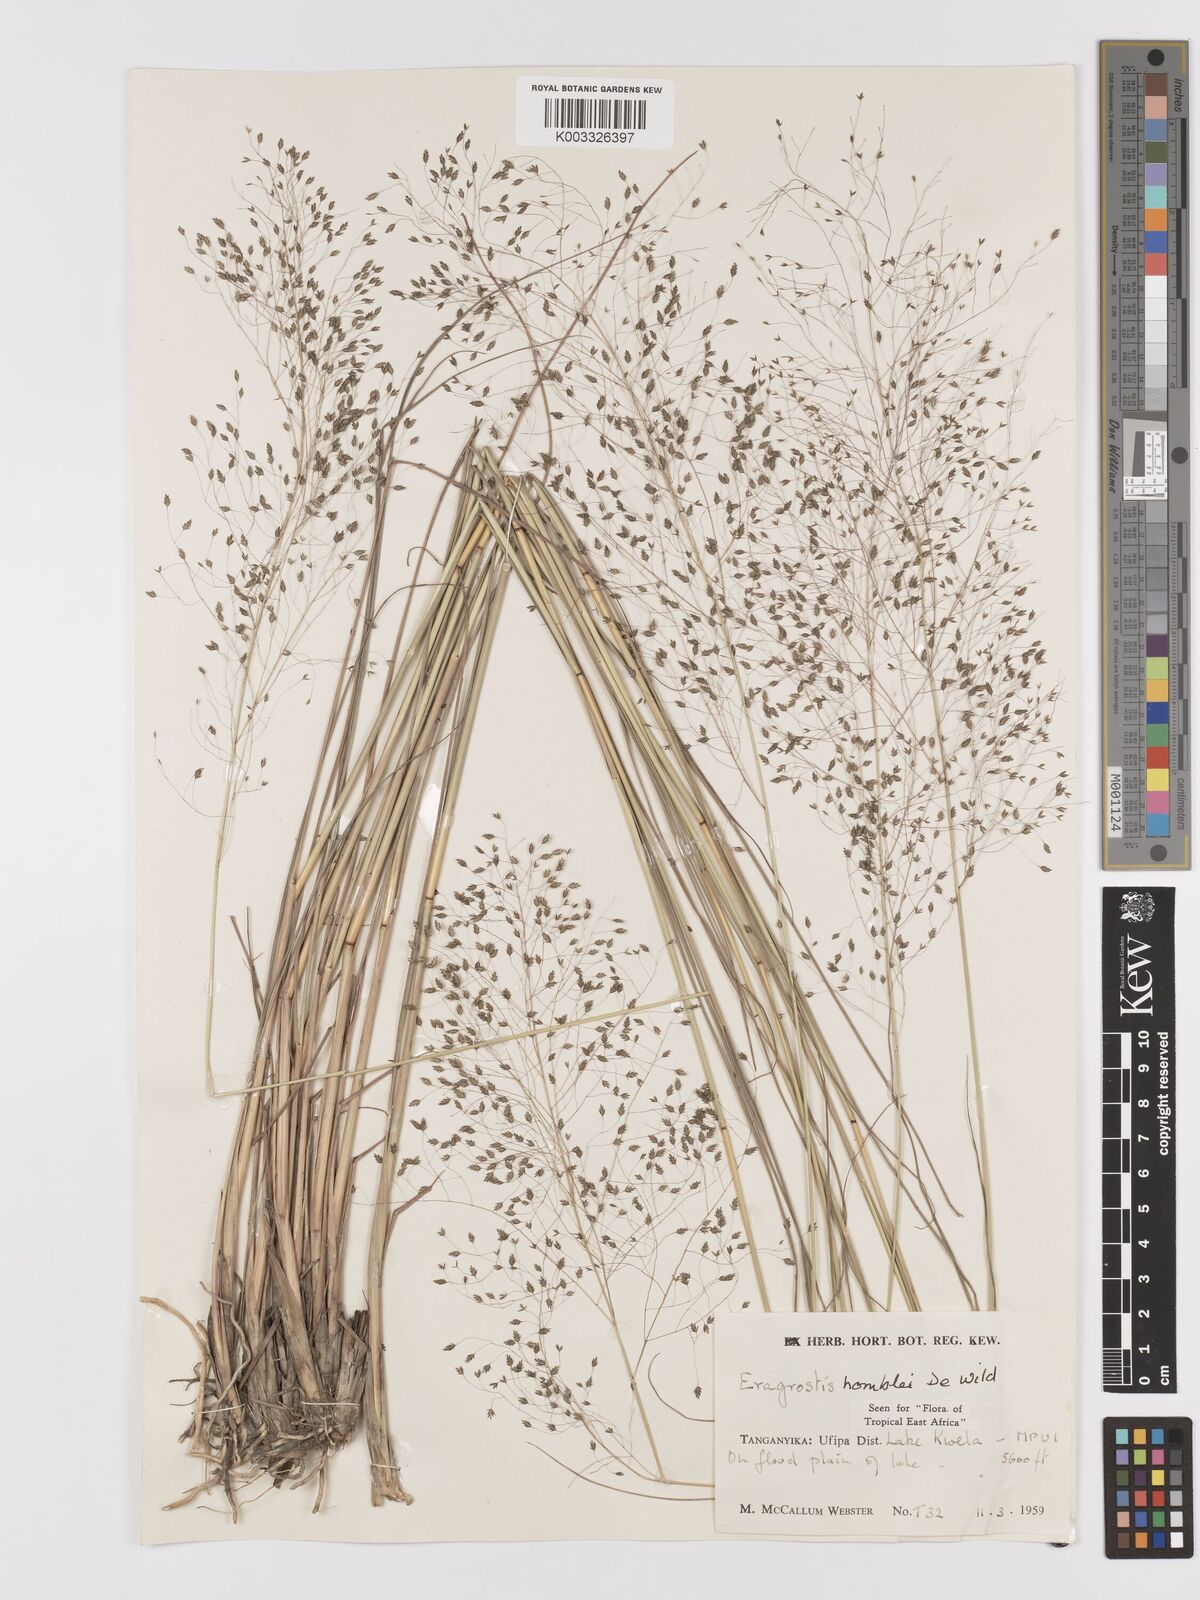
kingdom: Plantae
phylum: Tracheophyta
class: Liliopsida
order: Poales
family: Poaceae
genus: Eragrostis
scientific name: Eragrostis homblei
